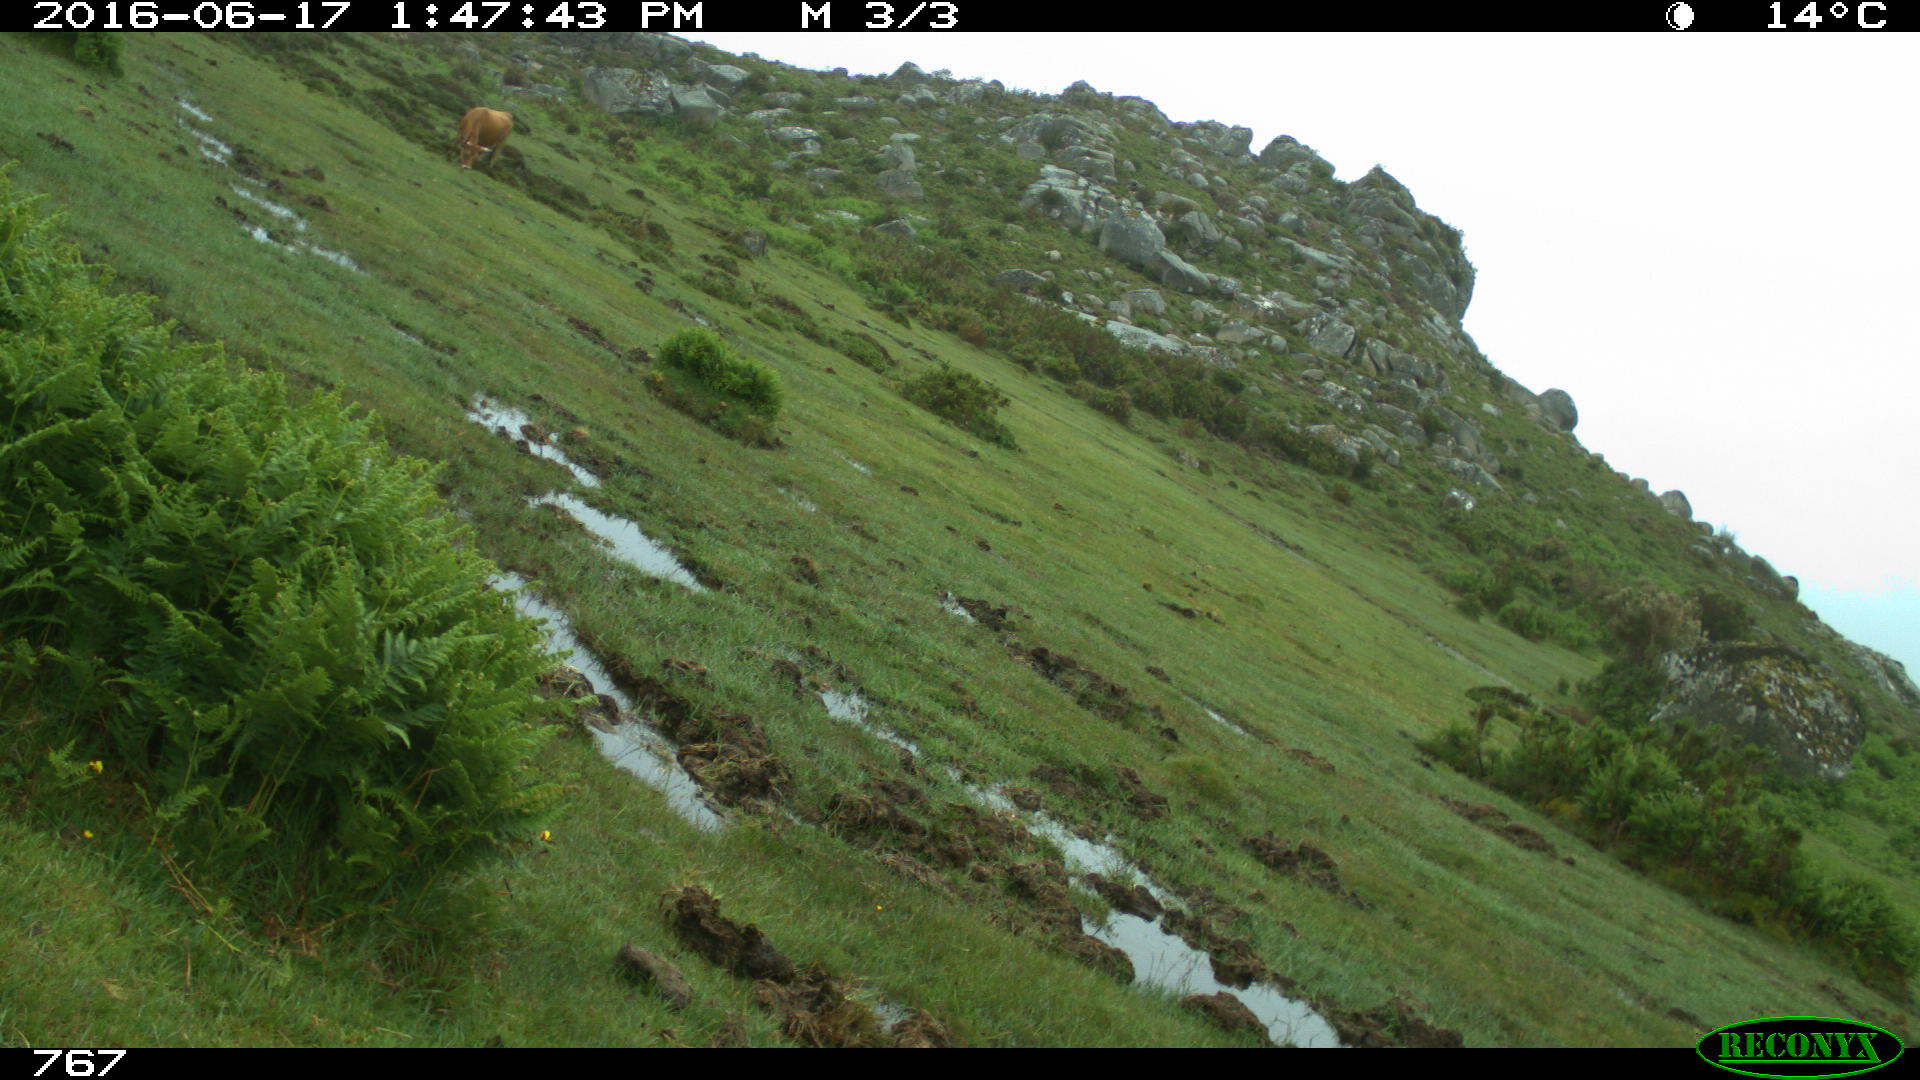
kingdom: Animalia
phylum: Chordata
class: Mammalia
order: Artiodactyla
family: Bovidae
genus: Bos
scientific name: Bos taurus
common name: Domesticated cattle
